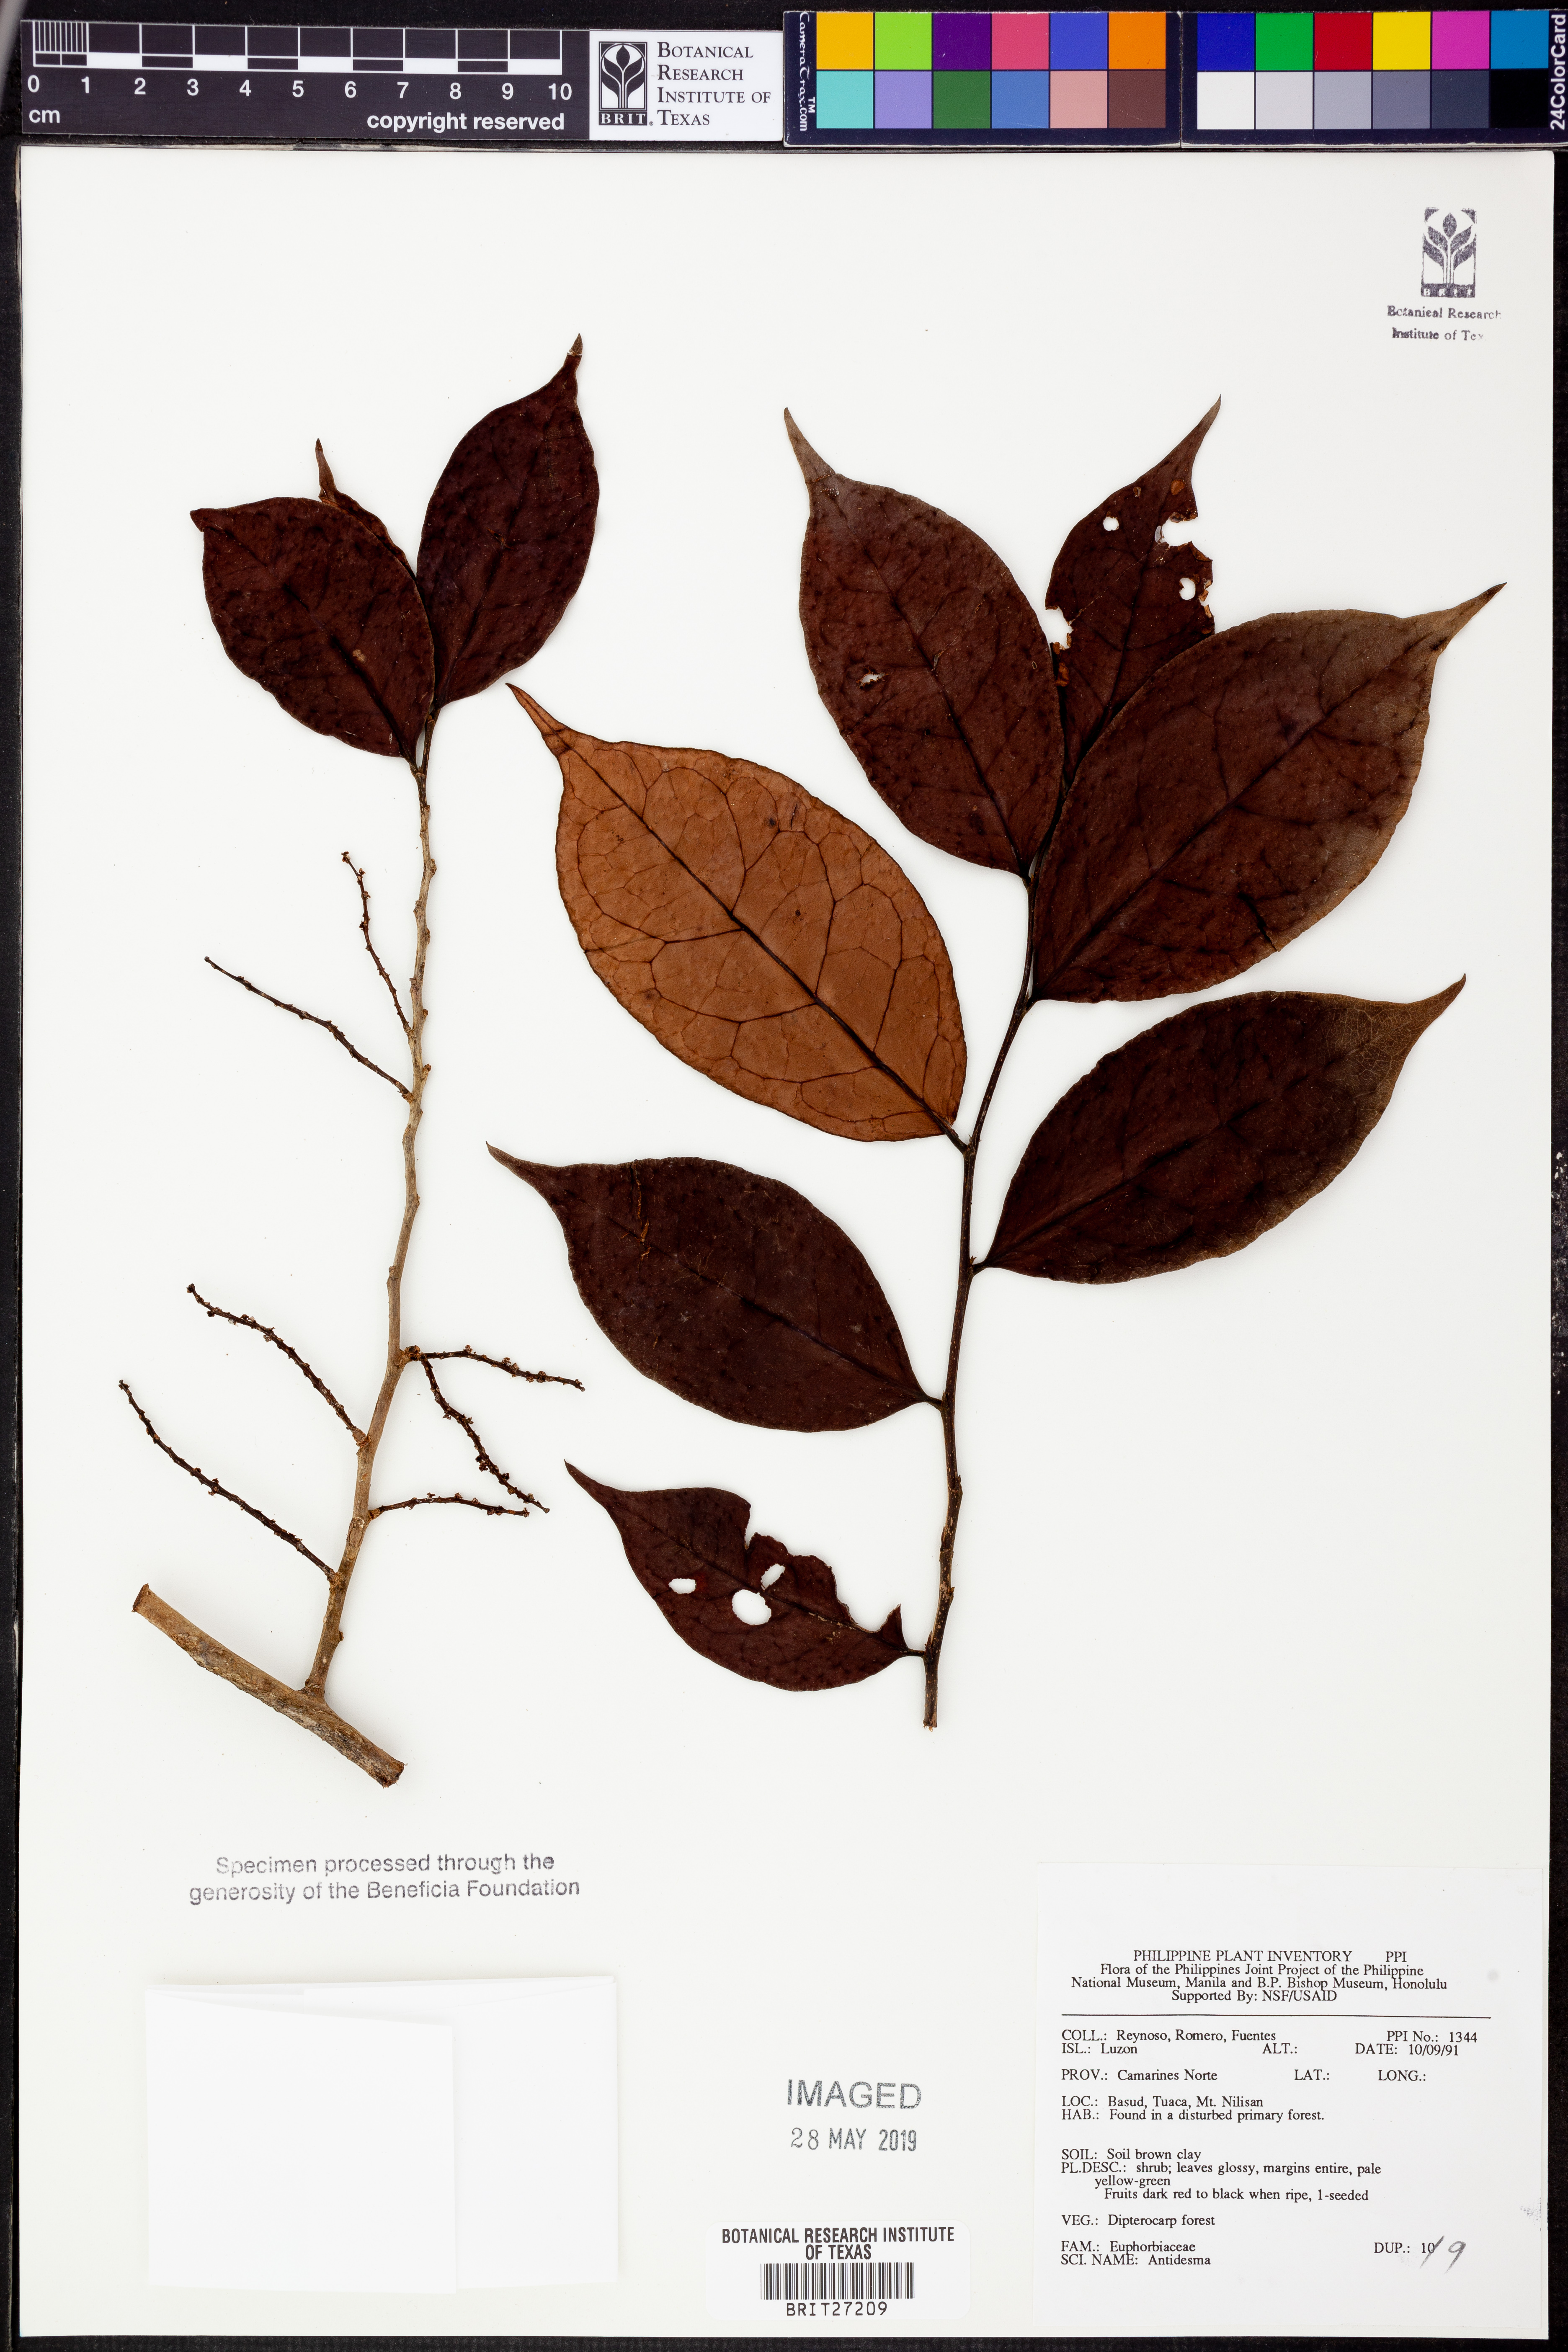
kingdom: Plantae
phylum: Tracheophyta
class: Magnoliopsida
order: Malpighiales
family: Phyllanthaceae
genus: Antidesma
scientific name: Antidesma
